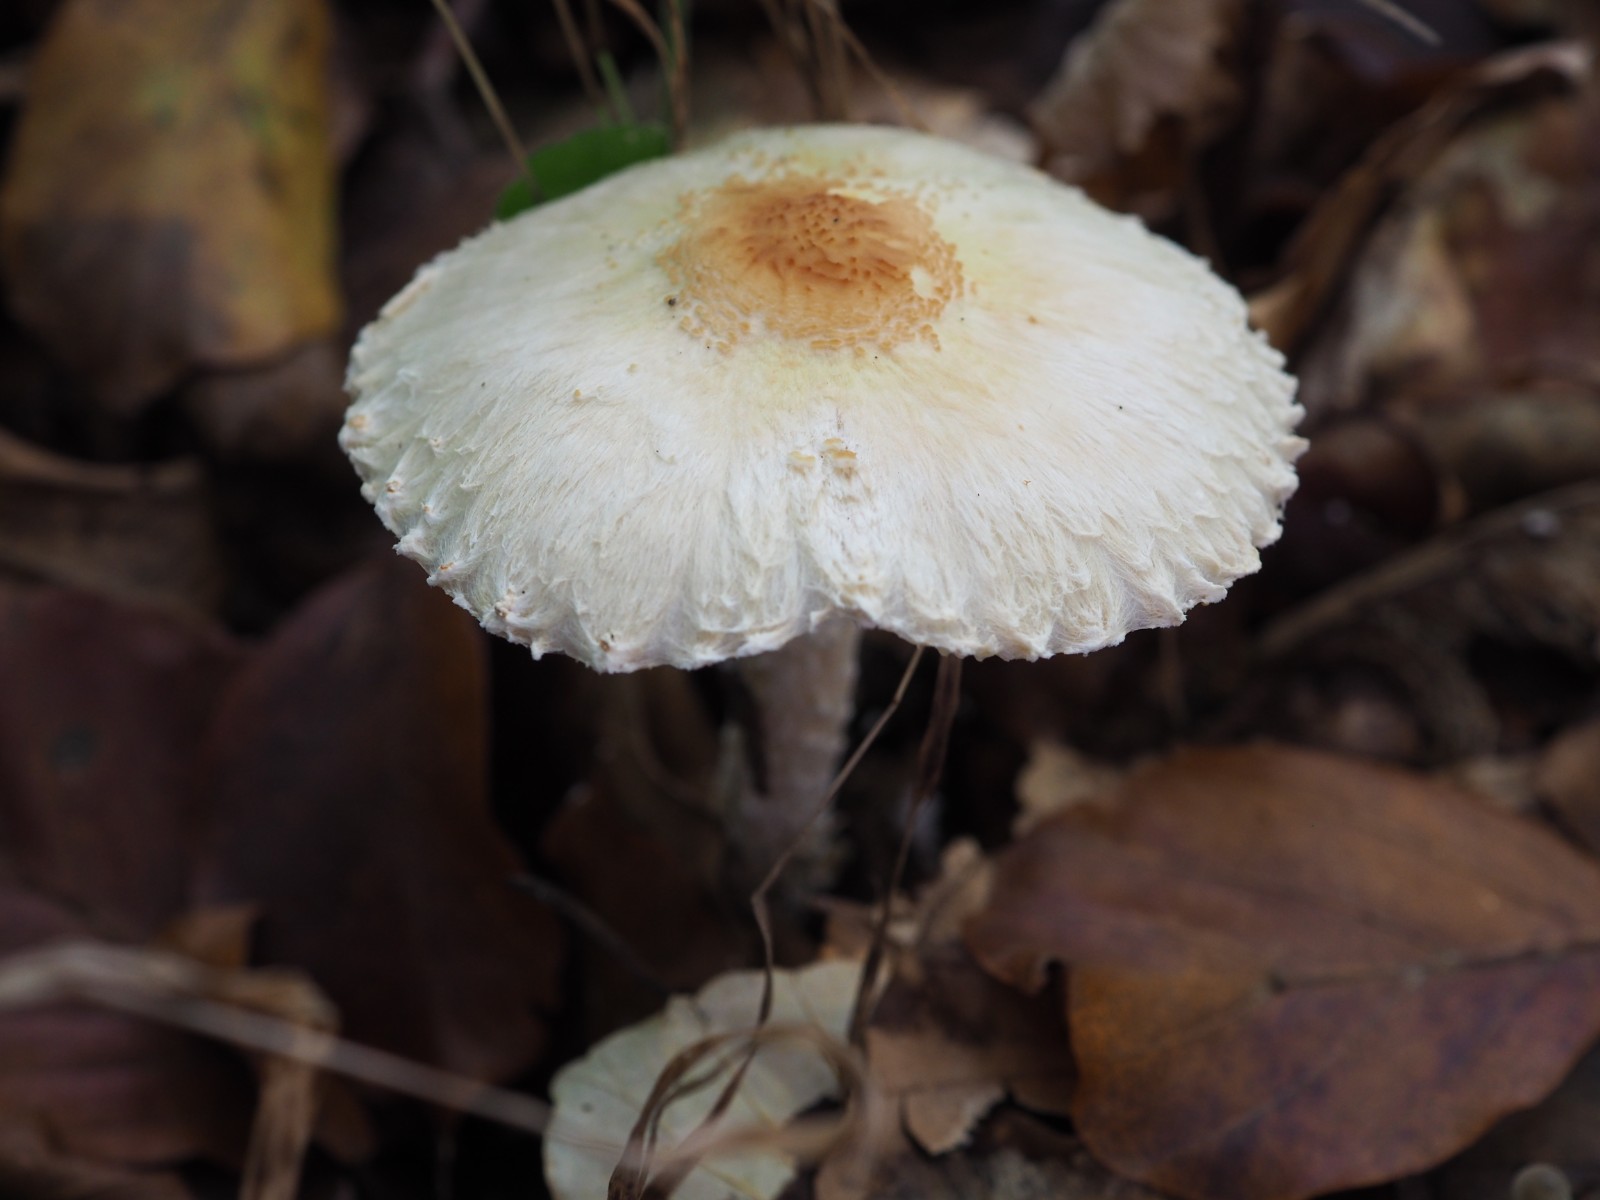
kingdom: Fungi
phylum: Basidiomycota
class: Agaricomycetes
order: Agaricales
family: Agaricaceae
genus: Lepiota
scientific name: Lepiota magnispora
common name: gulfnugget parasolhat
